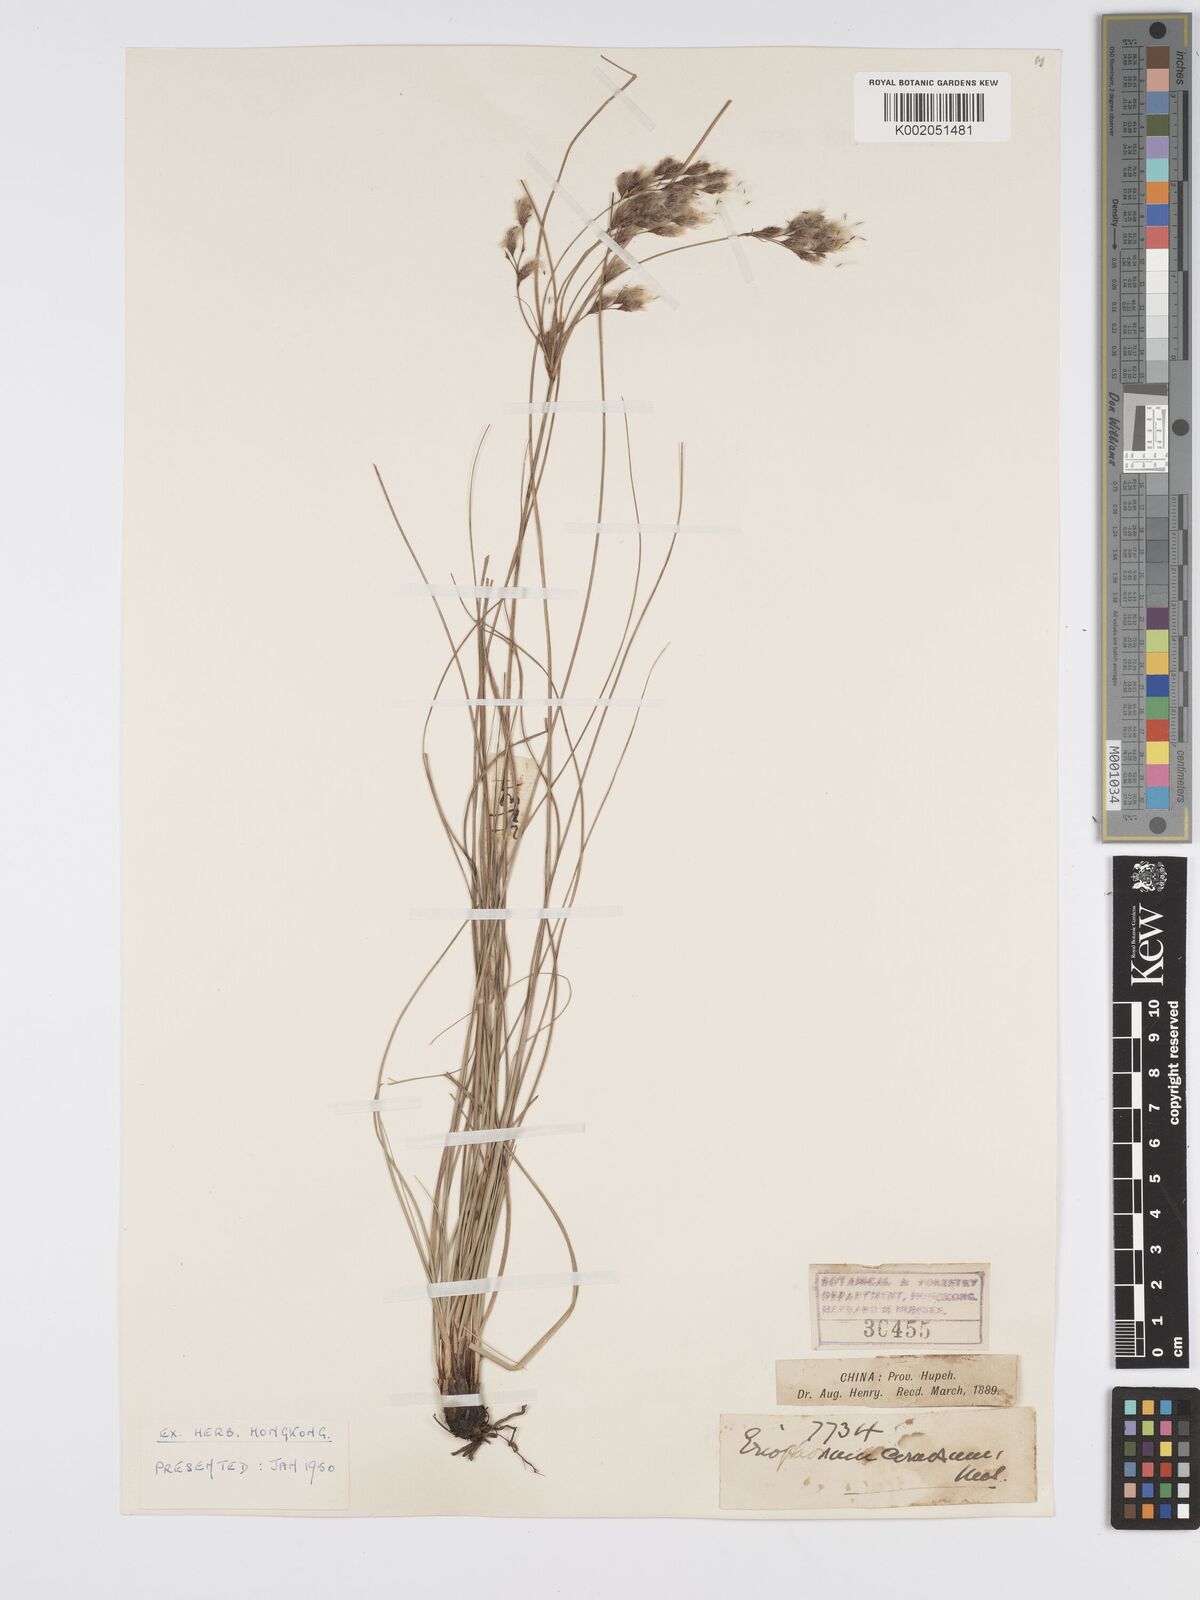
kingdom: Plantae
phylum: Tracheophyta
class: Liliopsida
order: Poales
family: Cyperaceae
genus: Erioscirpus
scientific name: Erioscirpus comosus
